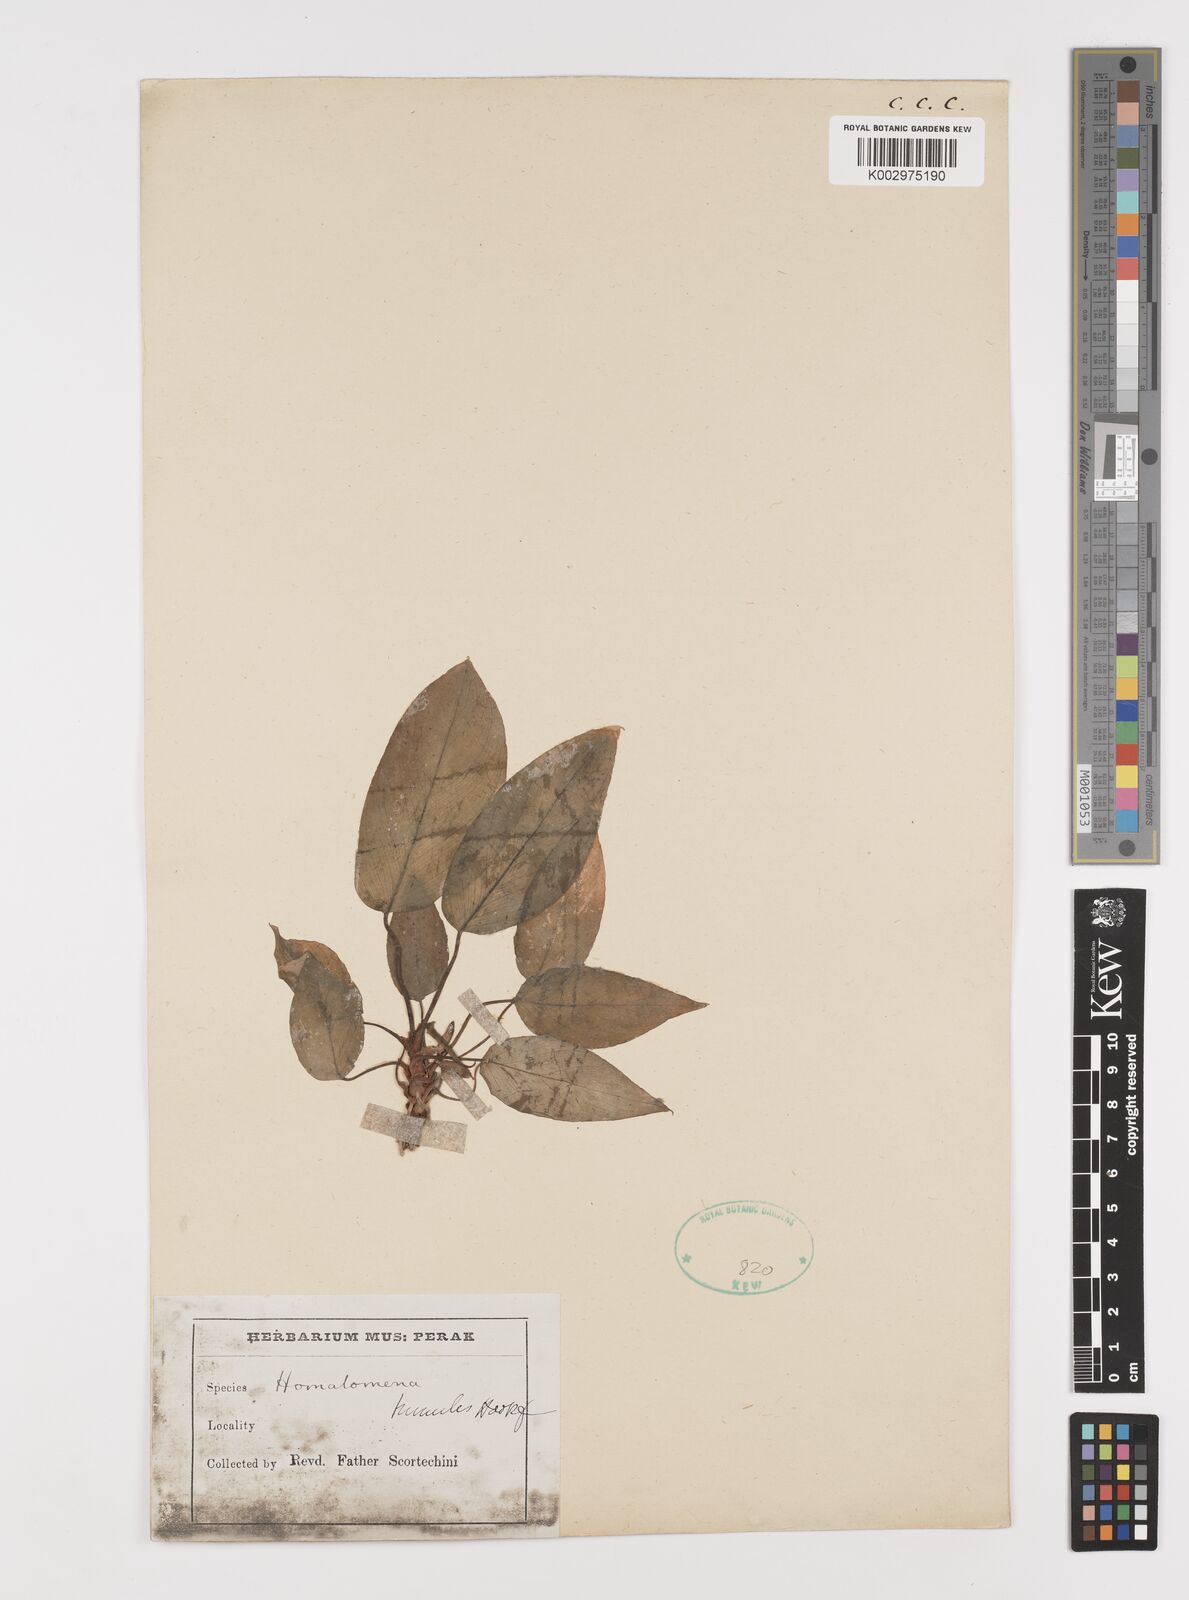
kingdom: Plantae
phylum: Tracheophyta
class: Liliopsida
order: Alismatales
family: Araceae
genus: Homalomena
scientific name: Homalomena
